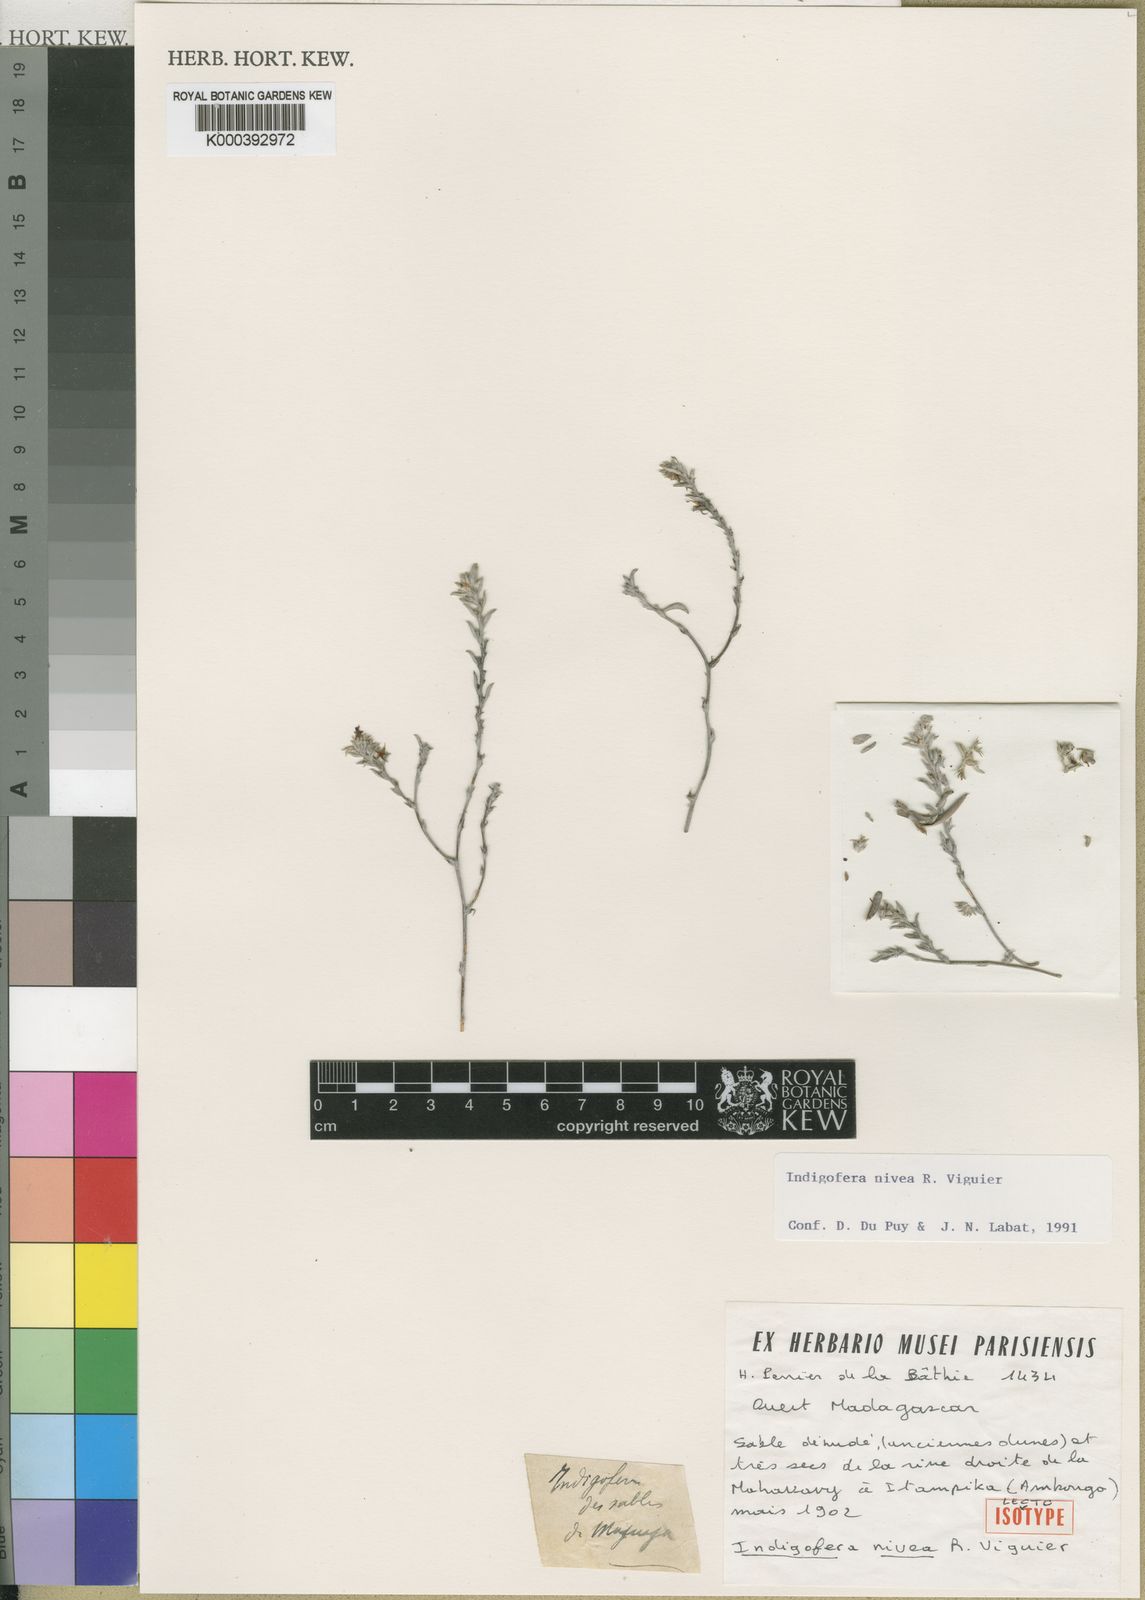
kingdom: Plantae
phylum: Tracheophyta
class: Magnoliopsida
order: Fabales
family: Fabaceae
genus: Indigofera
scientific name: Indigofera vigueri
